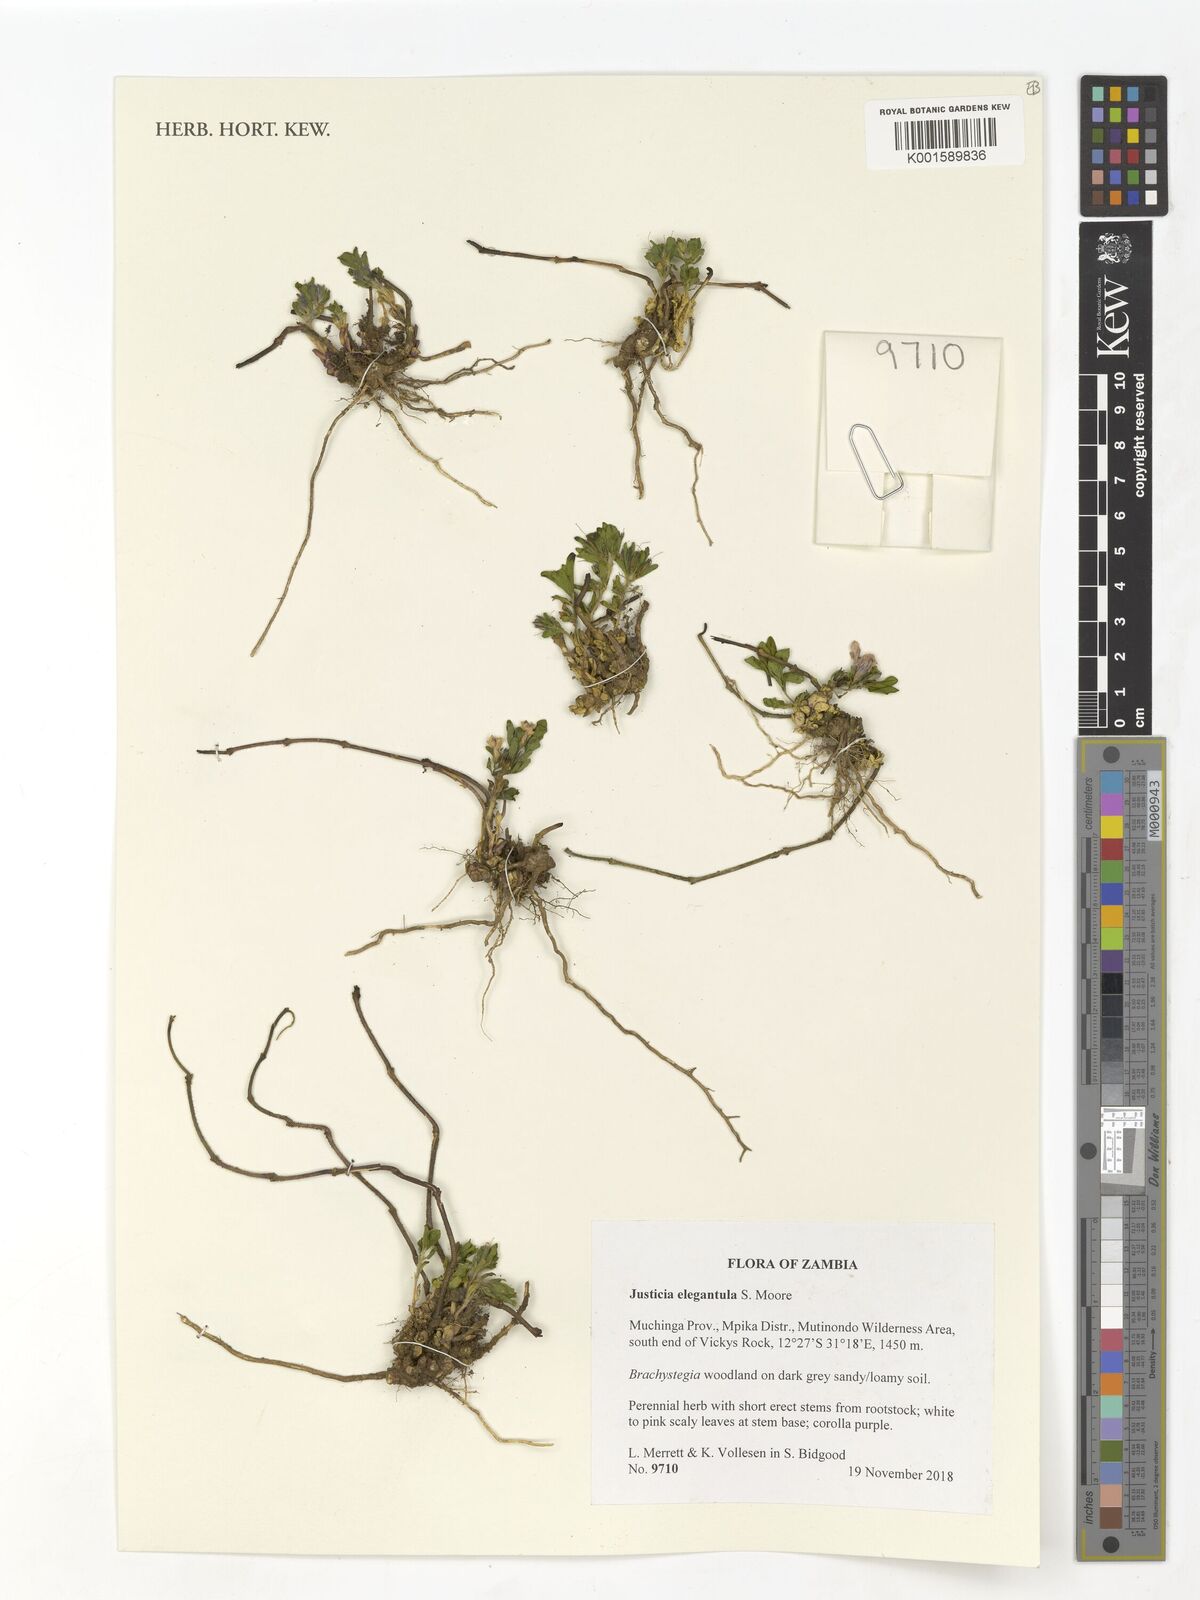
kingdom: Plantae
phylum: Tracheophyta
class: Magnoliopsida
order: Lamiales
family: Acanthaceae
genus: Justicia
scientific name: Justicia elegantula
